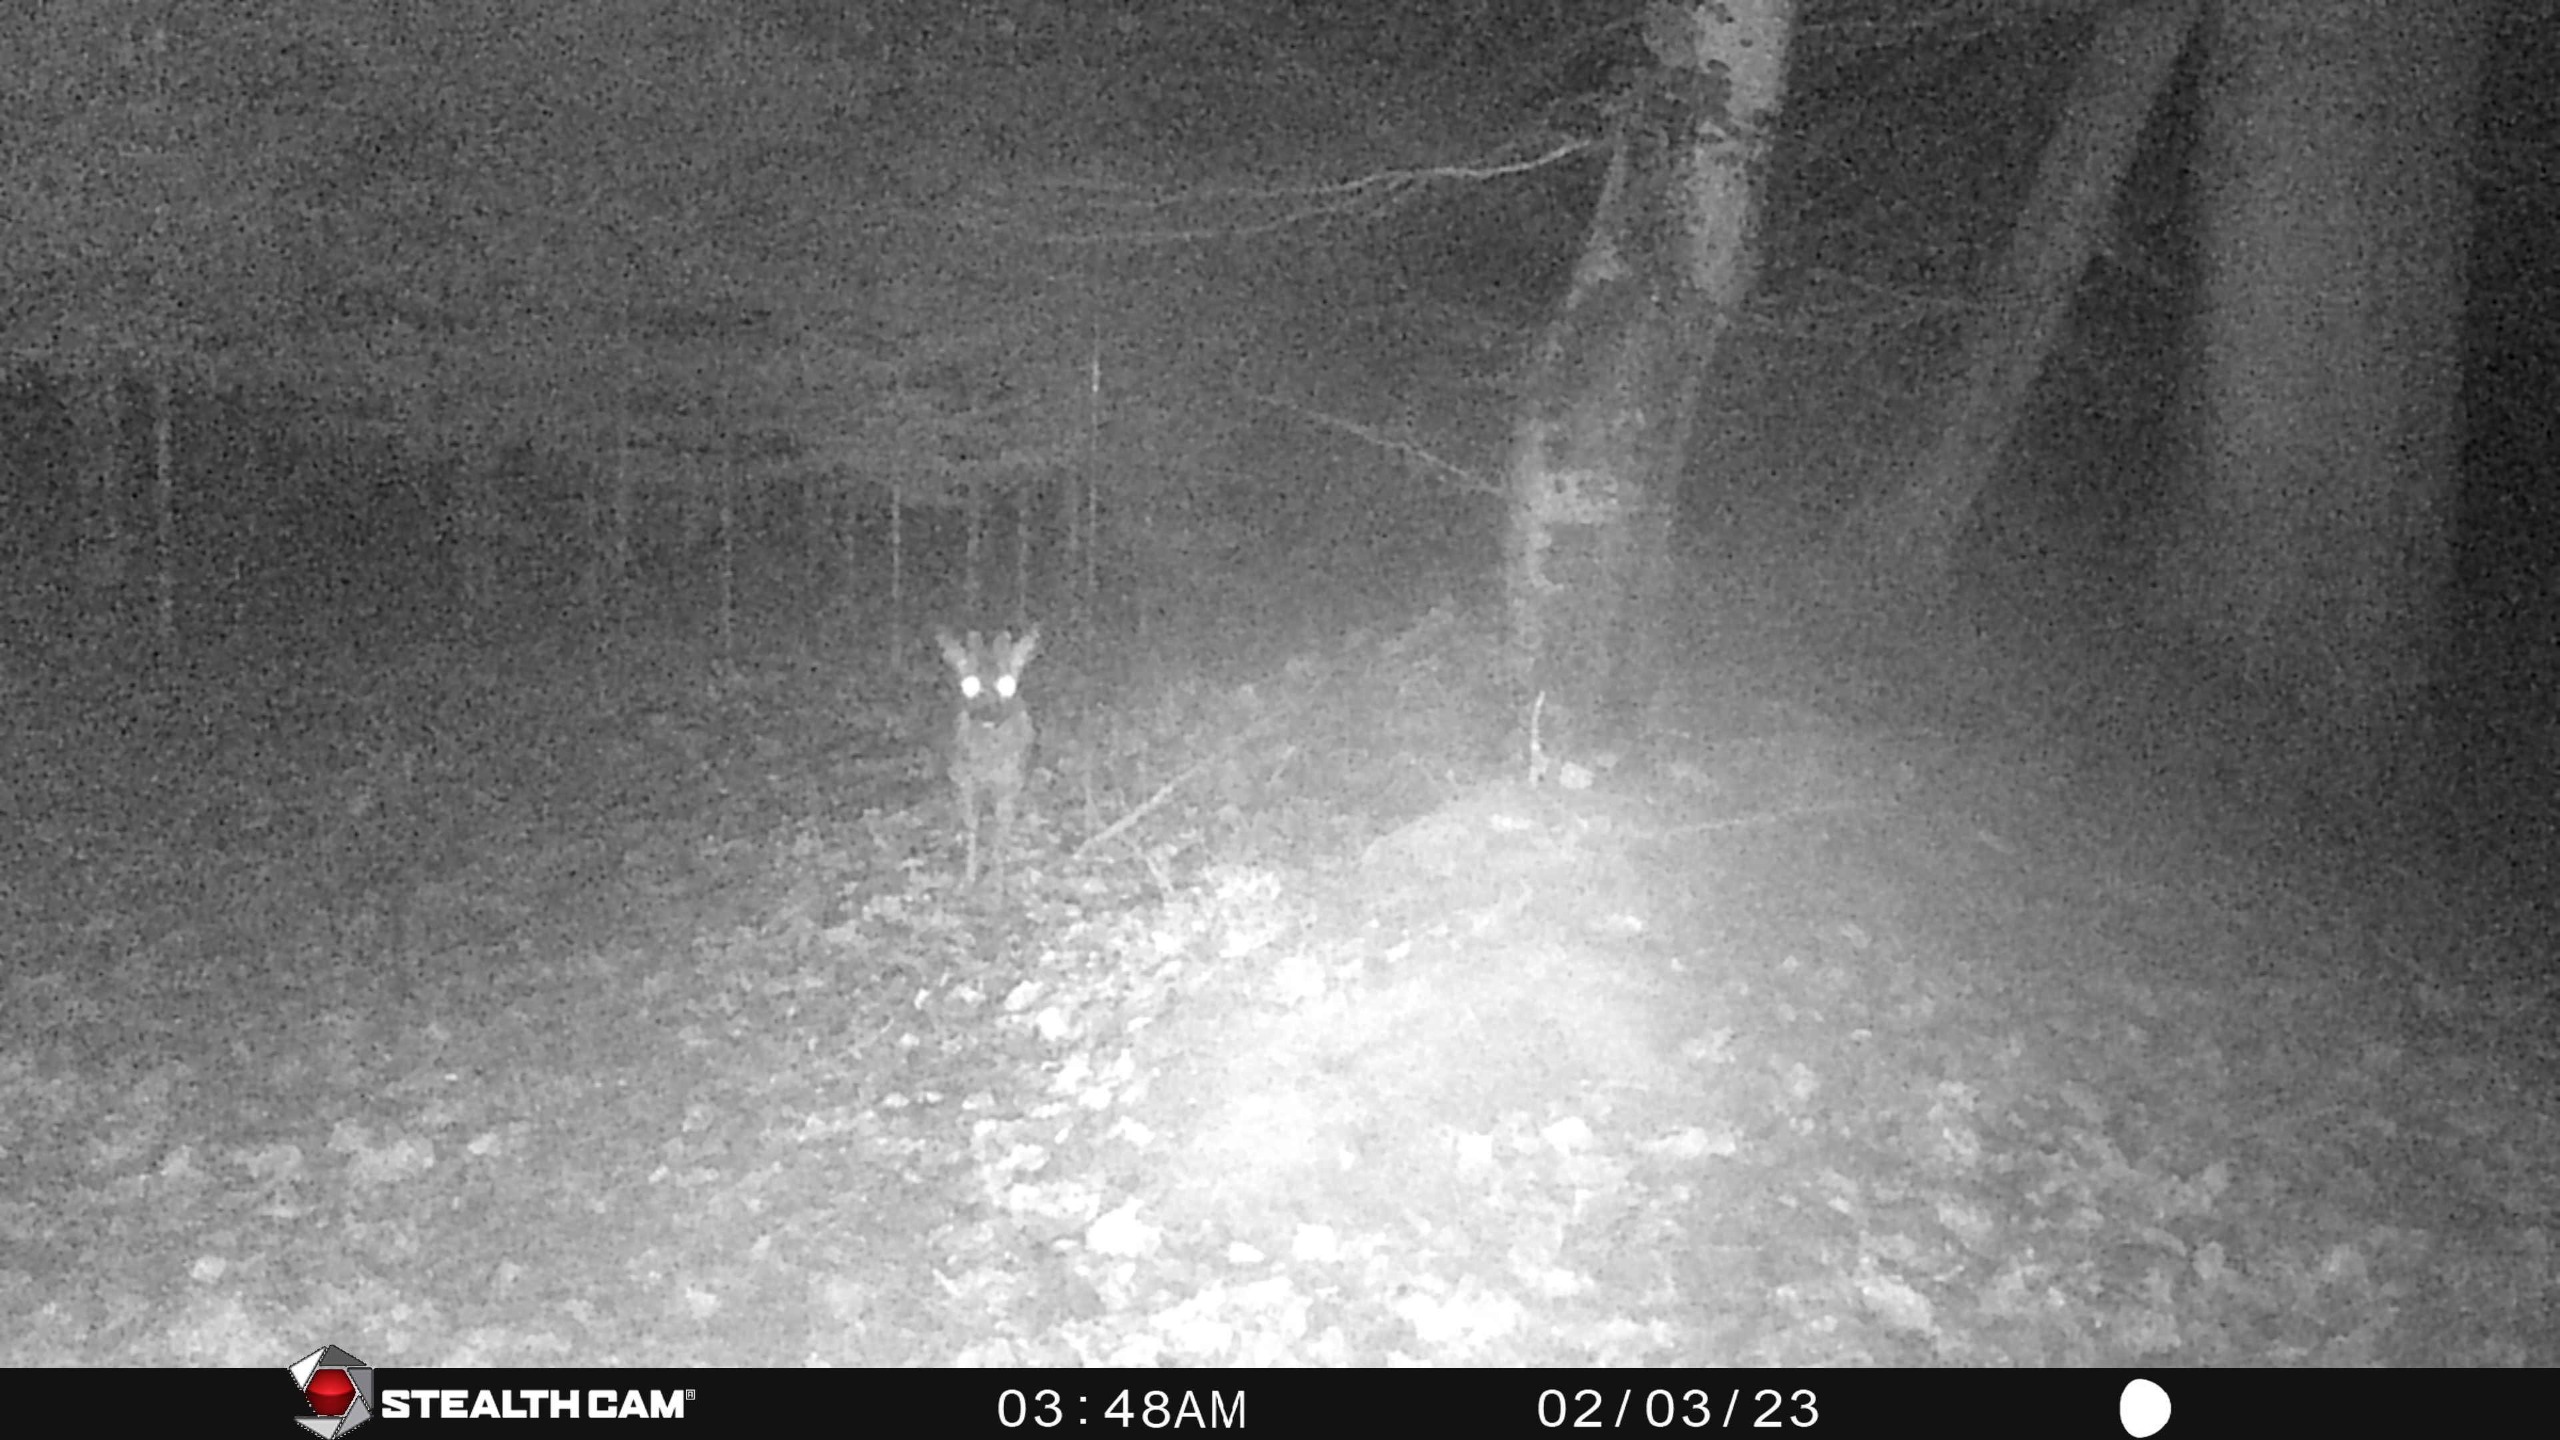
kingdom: Animalia
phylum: Chordata
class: Mammalia
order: Artiodactyla
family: Cervidae
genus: Capreolus
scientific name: Capreolus capreolus
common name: Rådyr
